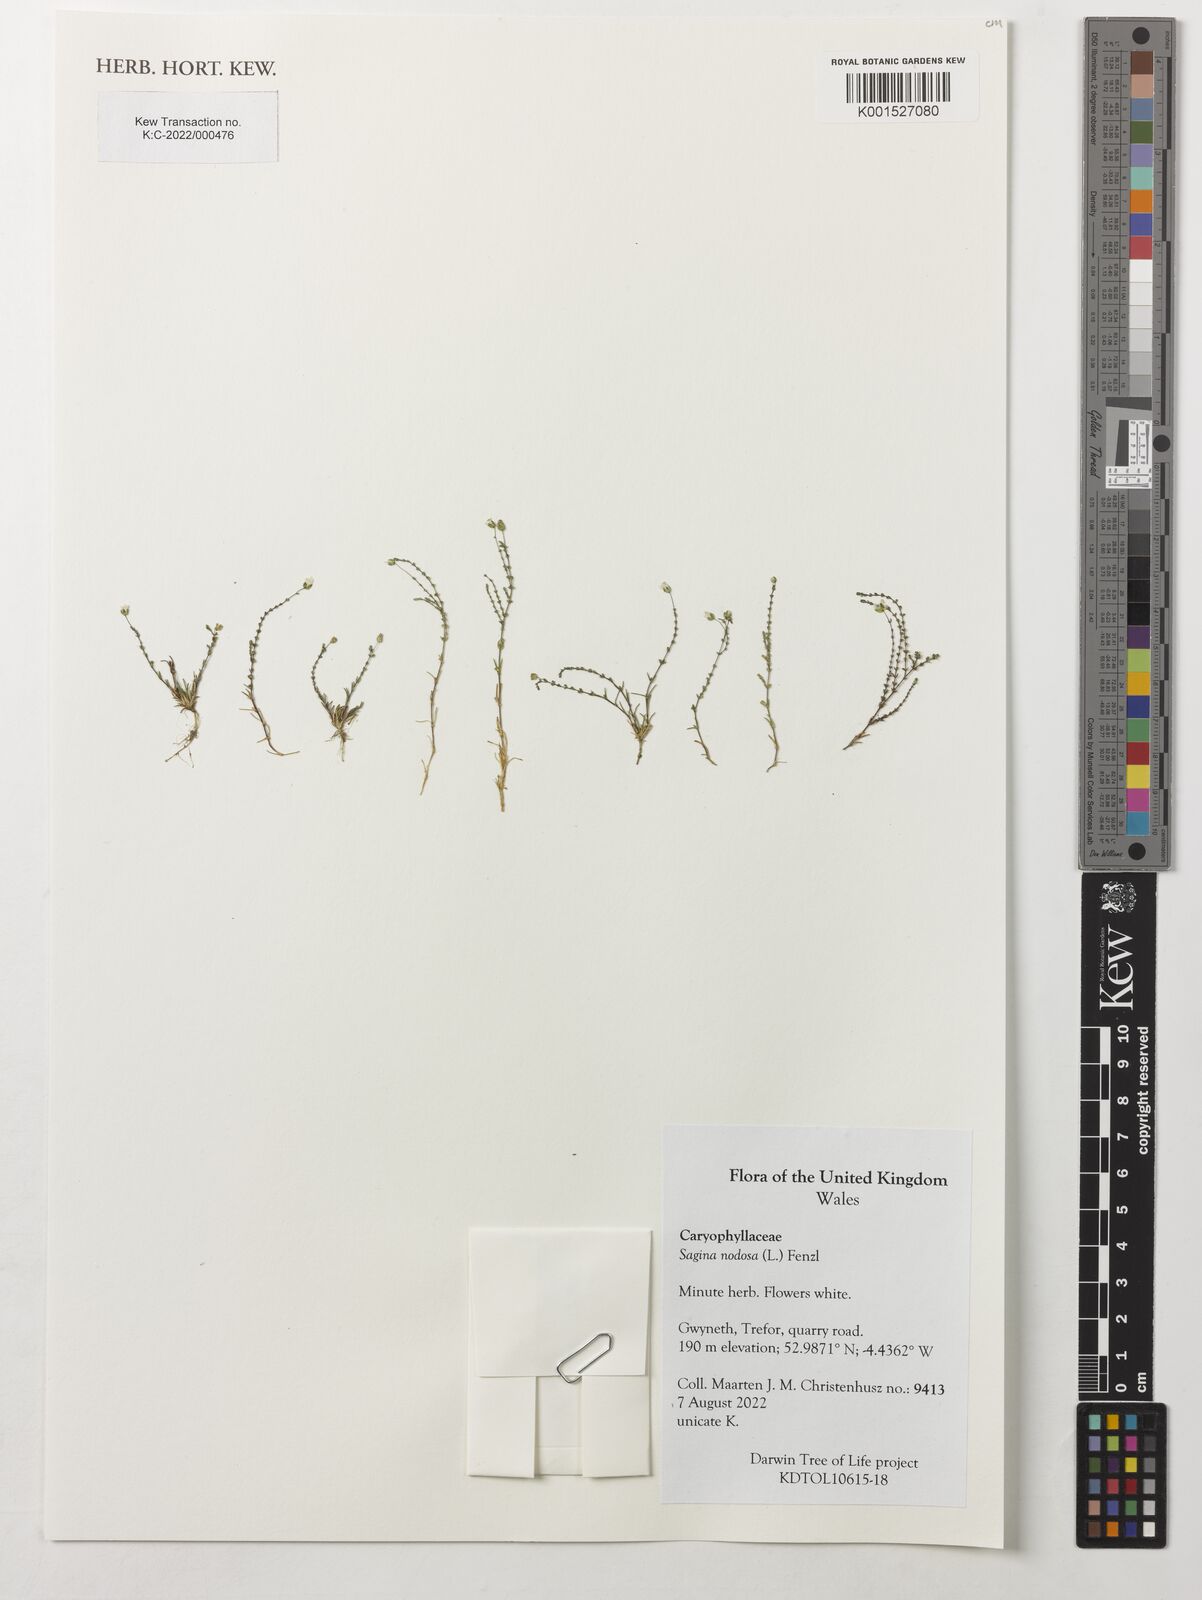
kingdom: Plantae
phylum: Tracheophyta
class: Magnoliopsida
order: Caryophyllales
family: Caryophyllaceae
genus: Sagina
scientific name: Sagina nodosa
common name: Knotted pearlwort
